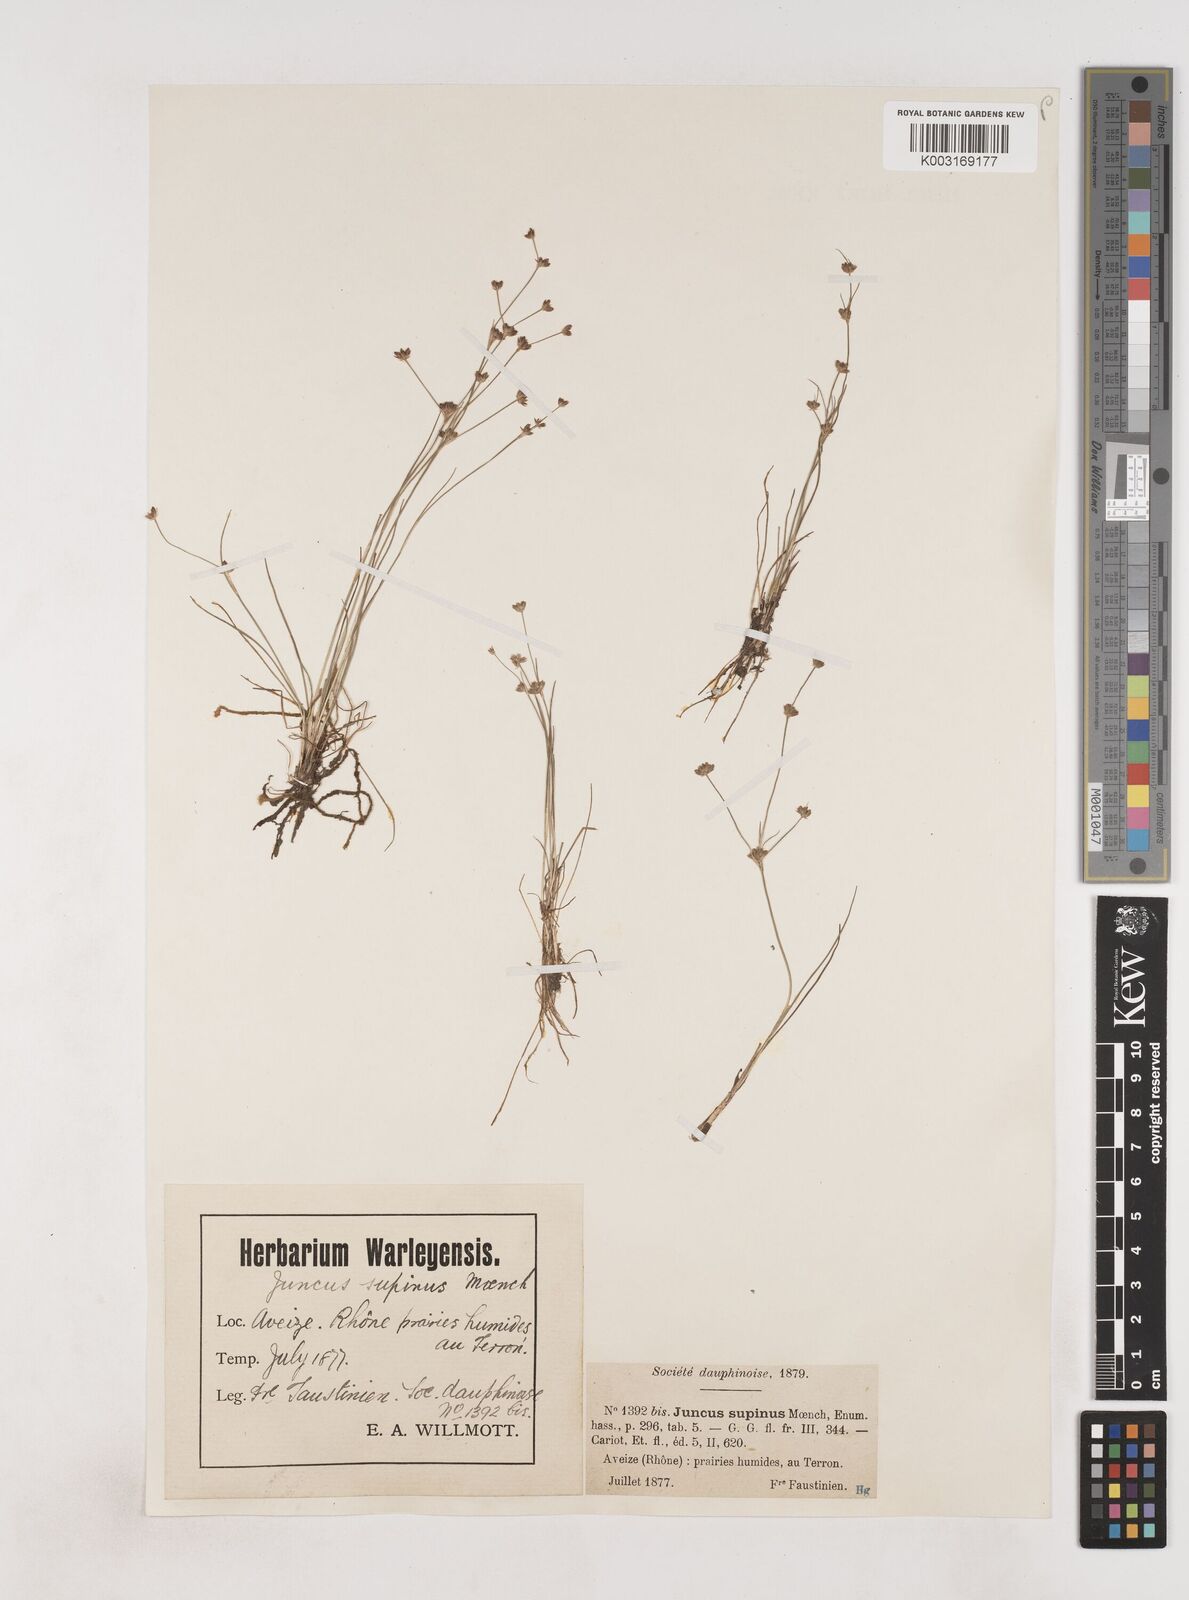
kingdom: Plantae
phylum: Tracheophyta
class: Liliopsida
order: Poales
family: Juncaceae
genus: Juncus
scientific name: Juncus bulbosus
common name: Bulbous rush
